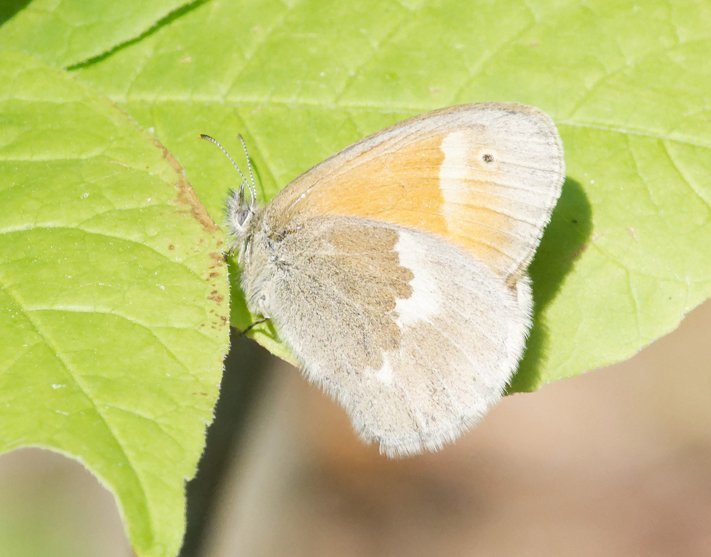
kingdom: Animalia
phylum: Arthropoda
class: Insecta
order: Lepidoptera
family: Nymphalidae
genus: Coenonympha
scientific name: Coenonympha tullia
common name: Large Heath
